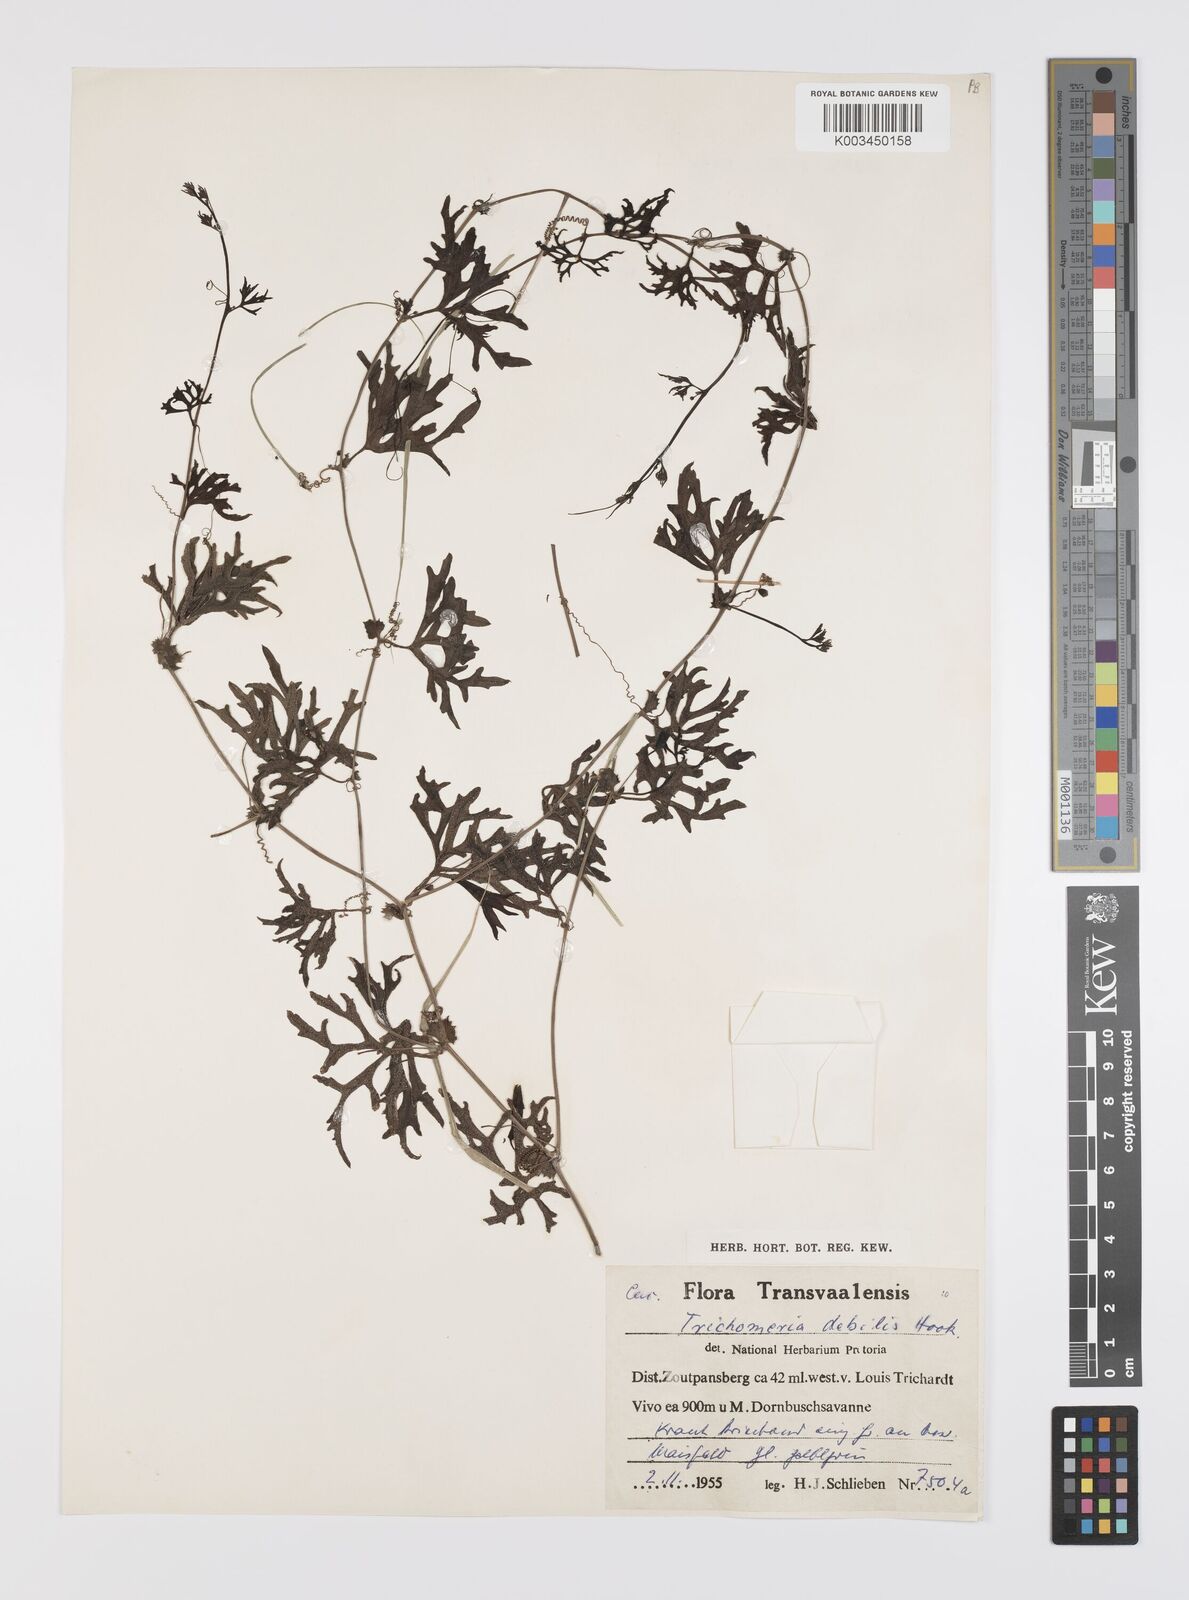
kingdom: Plantae
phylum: Tracheophyta
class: Magnoliopsida
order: Cucurbitales
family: Cucurbitaceae
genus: Trochomeria
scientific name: Trochomeria debilis
